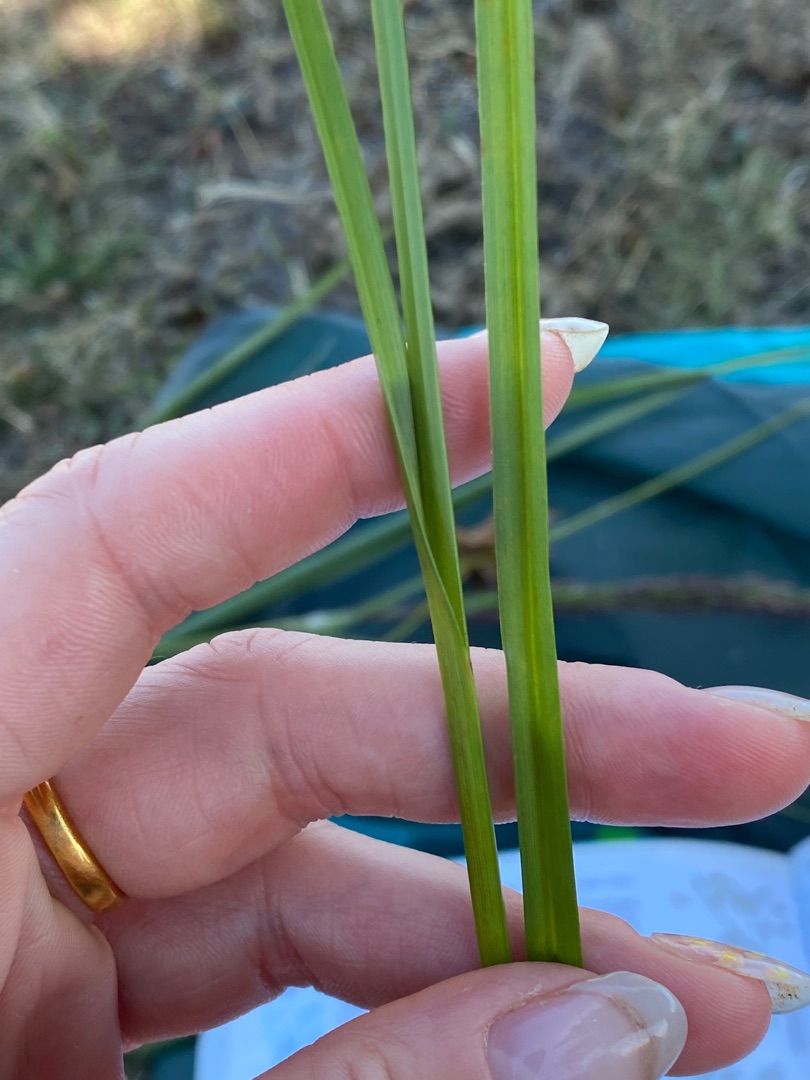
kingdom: Plantae
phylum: Tracheophyta
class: Liliopsida
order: Poales
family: Cyperaceae
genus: Bolboschoenus
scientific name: Bolboschoenus maritimus
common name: Strand-kogleaks
